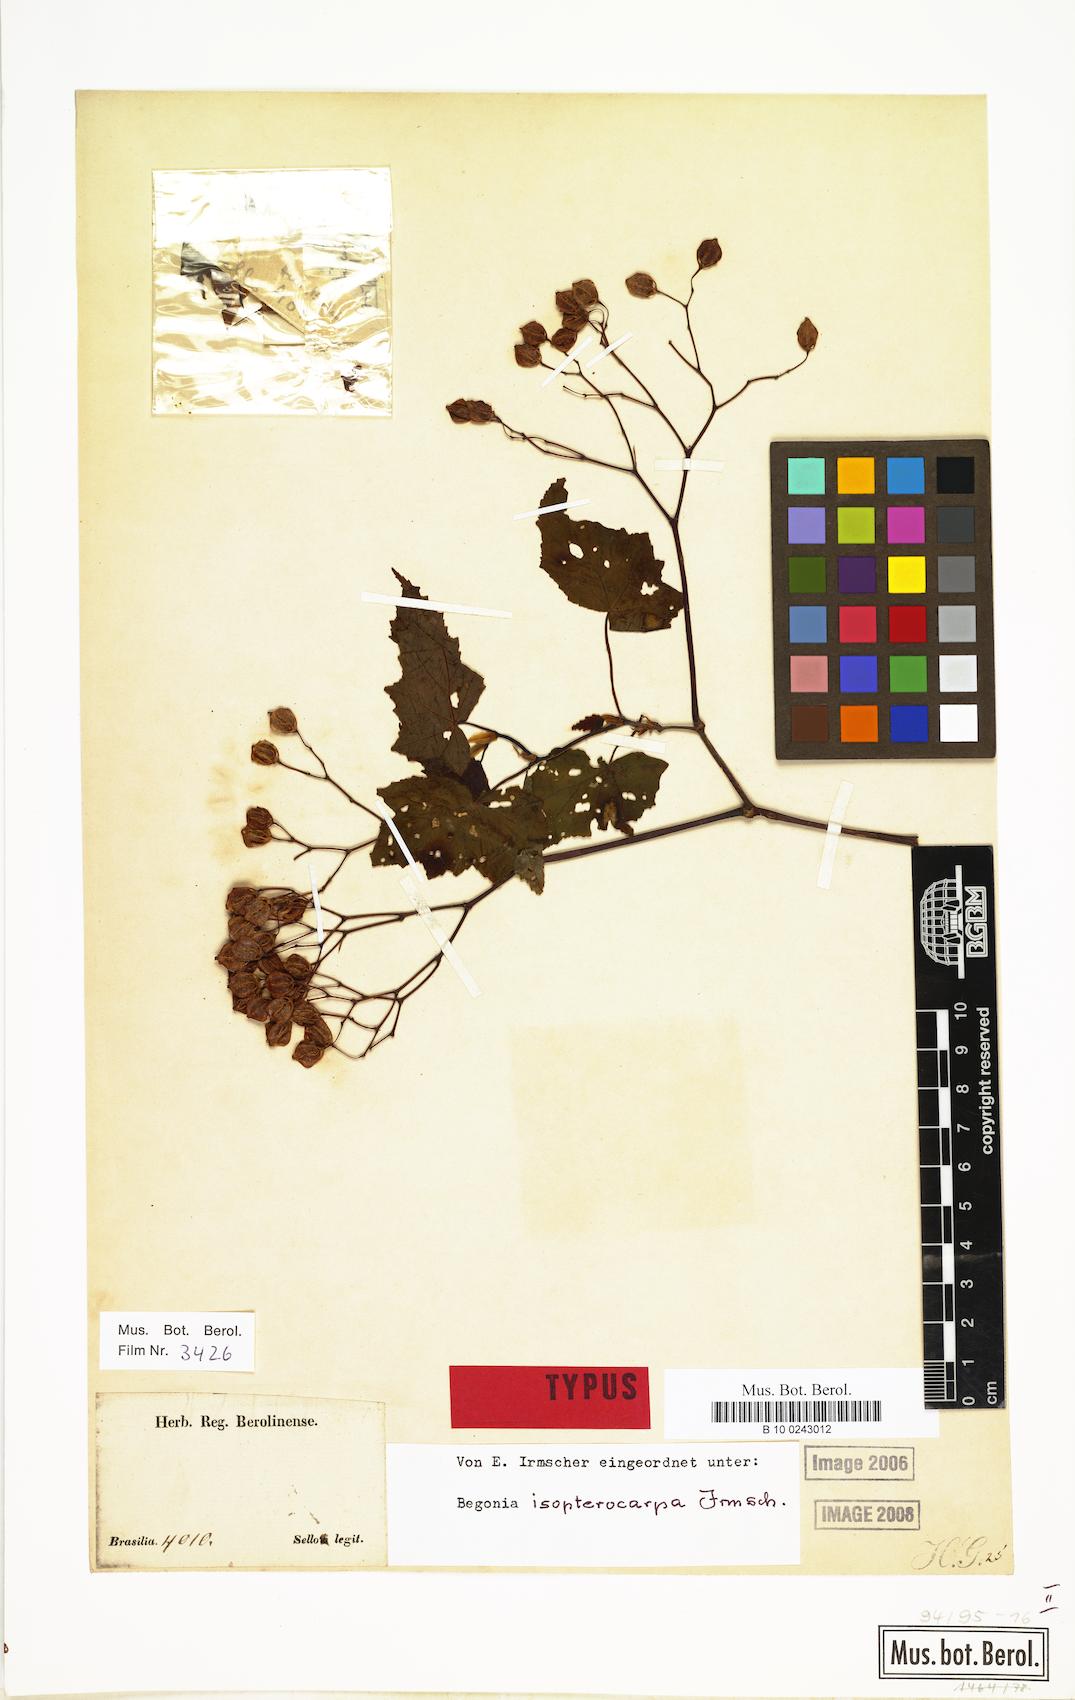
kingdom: Plantae
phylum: Tracheophyta
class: Magnoliopsida
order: Cucurbitales
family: Begoniaceae
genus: Begonia
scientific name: Begonia isopterocarpa
